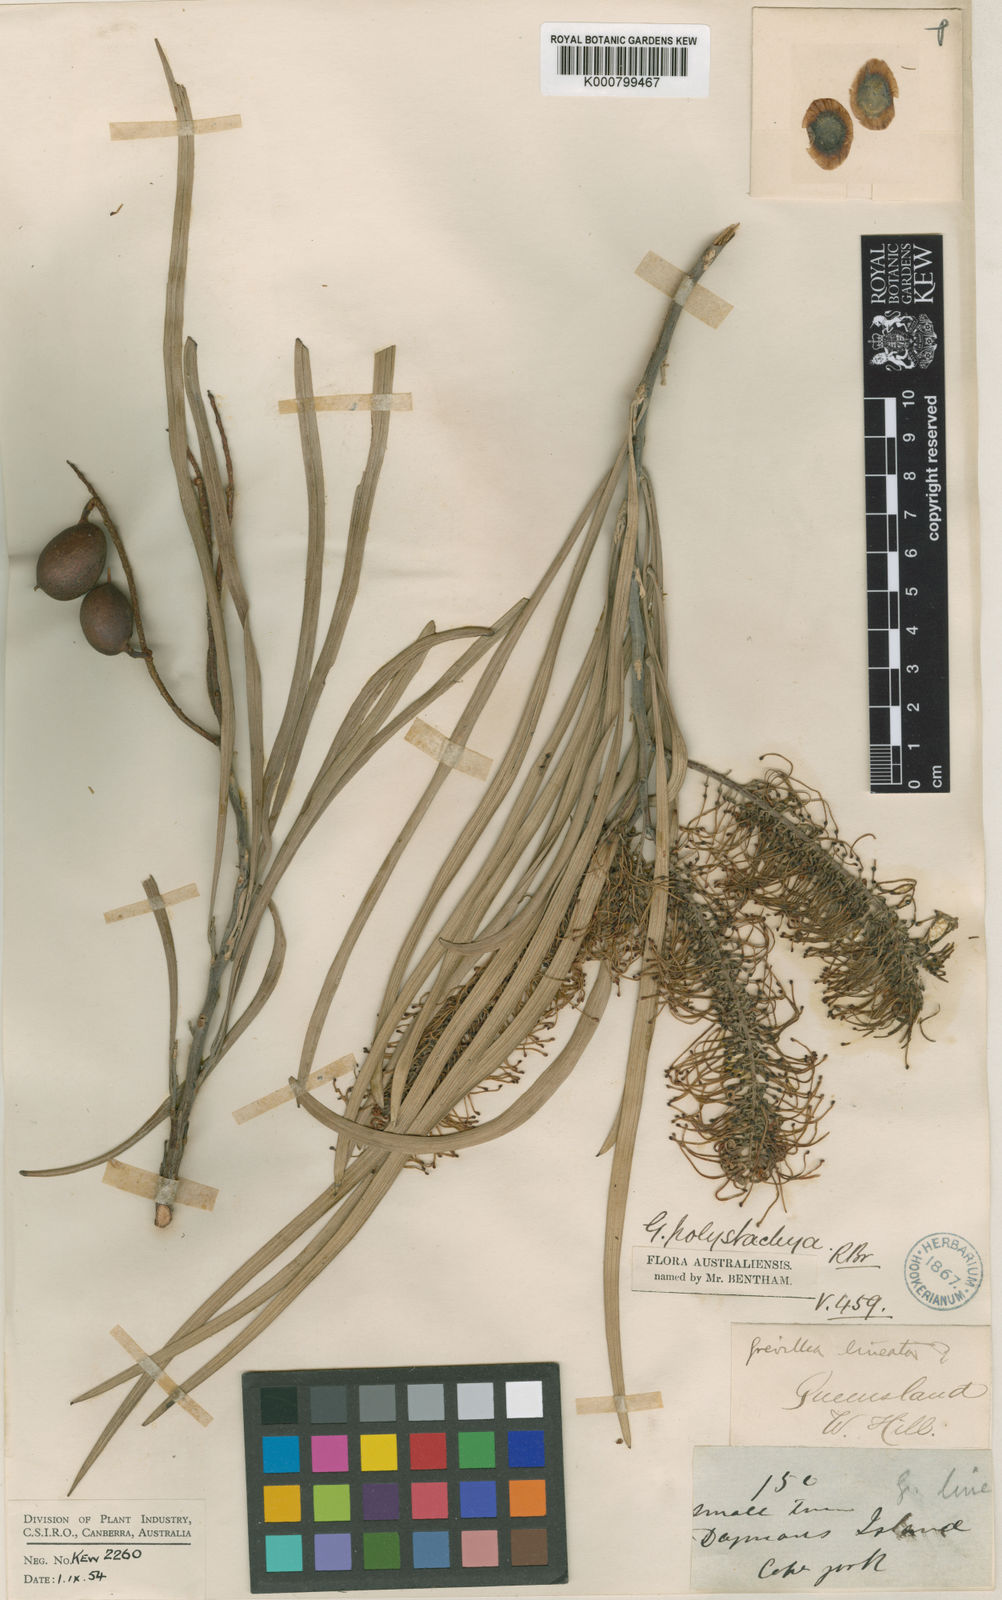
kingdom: Plantae
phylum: Tracheophyta
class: Magnoliopsida
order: Proteales
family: Proteaceae
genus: Grevillea
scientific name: Grevillea parallela
